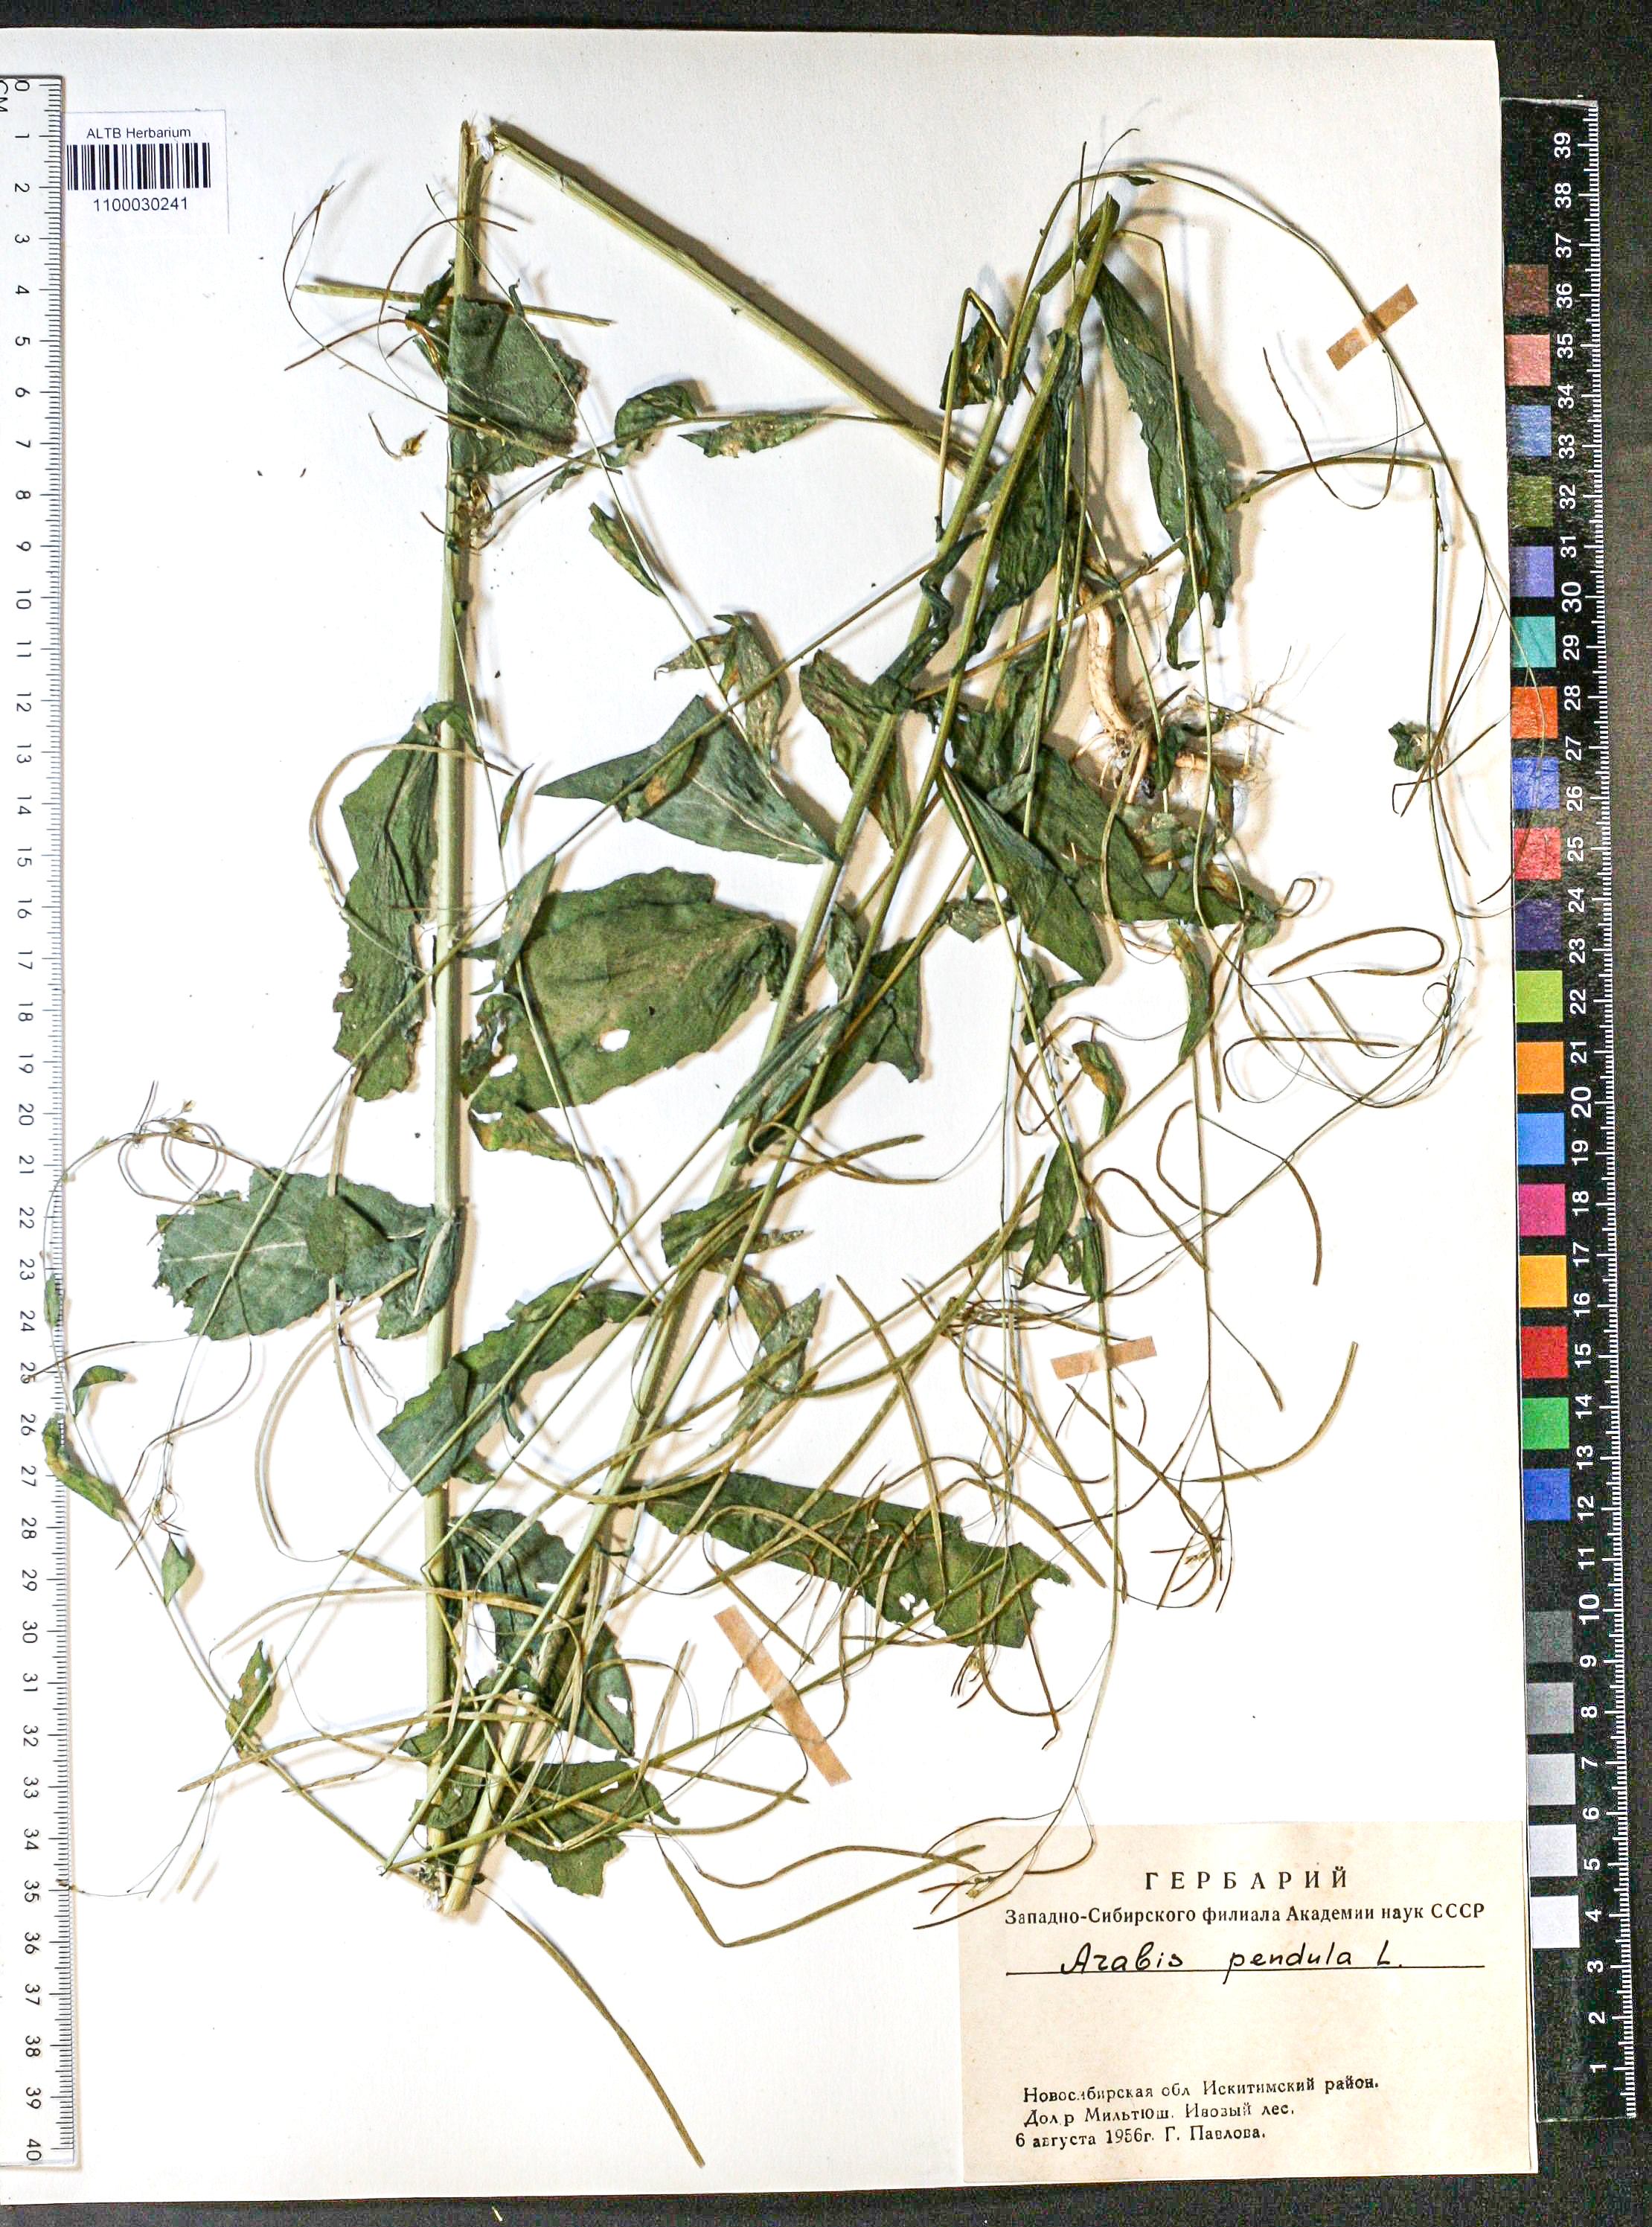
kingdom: Plantae
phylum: Tracheophyta
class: Magnoliopsida
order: Brassicales
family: Brassicaceae
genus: Catolobus
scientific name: Catolobus pendulus
